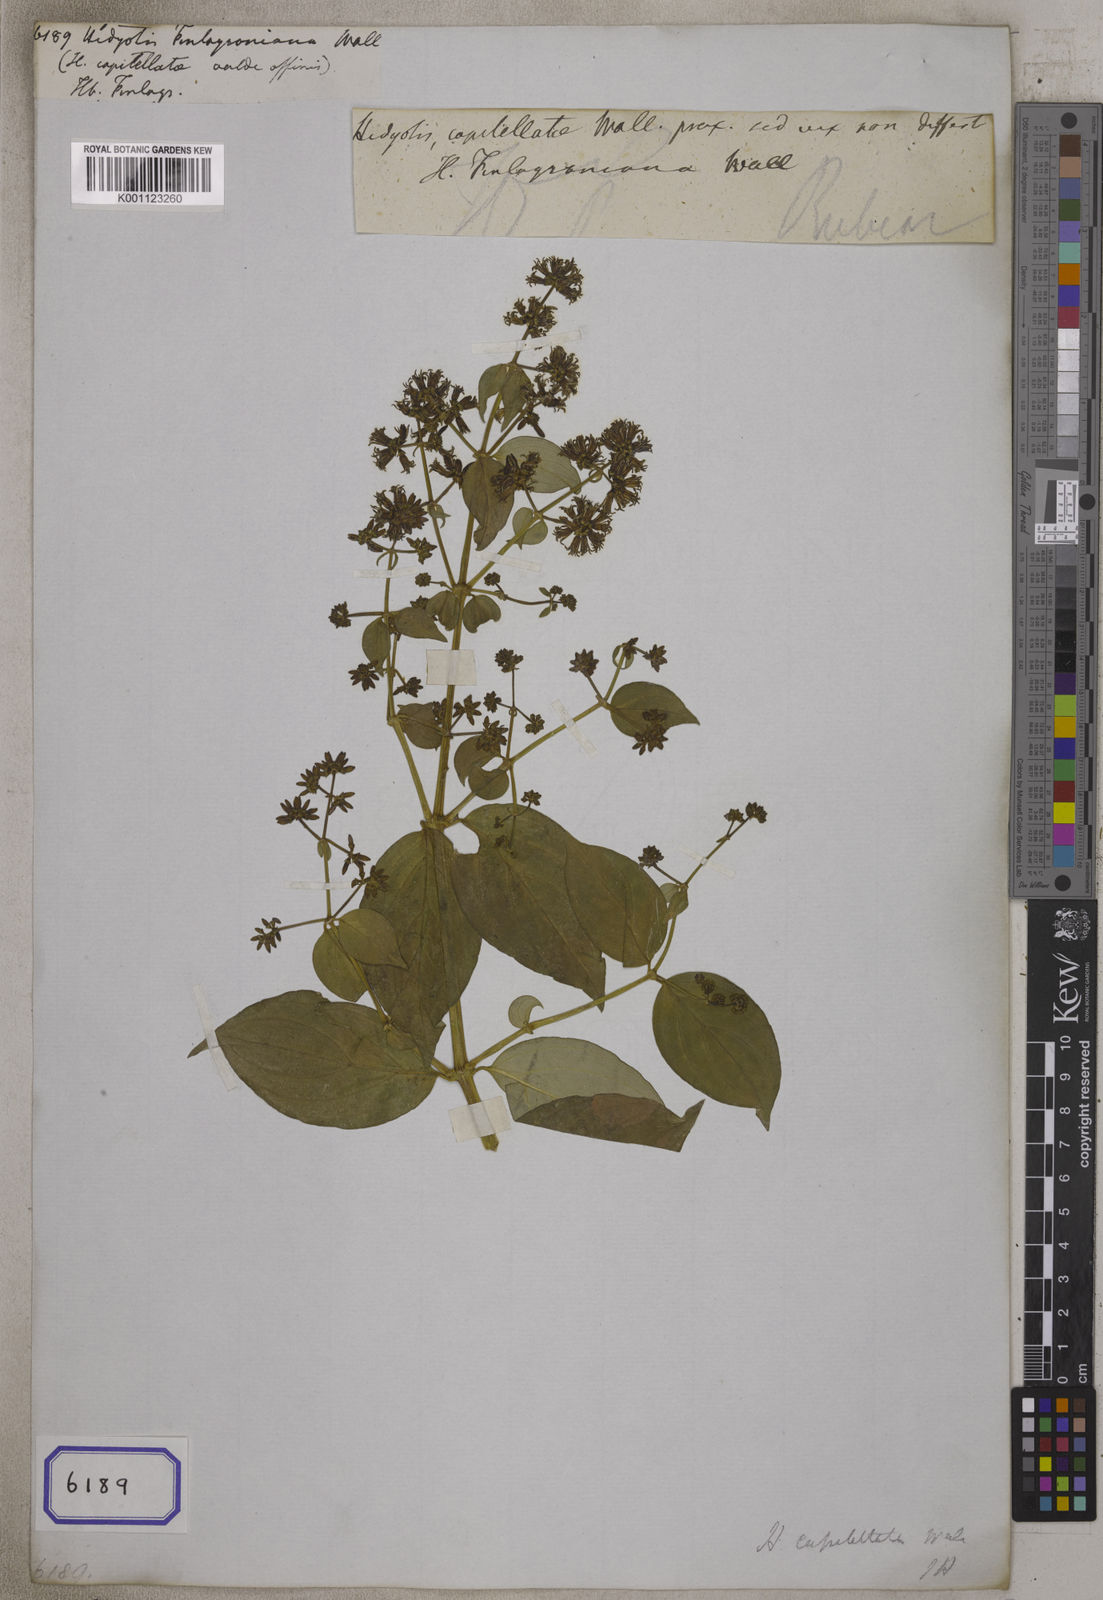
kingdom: Plantae
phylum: Tracheophyta
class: Magnoliopsida
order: Gentianales
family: Rubiaceae
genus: Hedyotis
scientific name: Hedyotis
